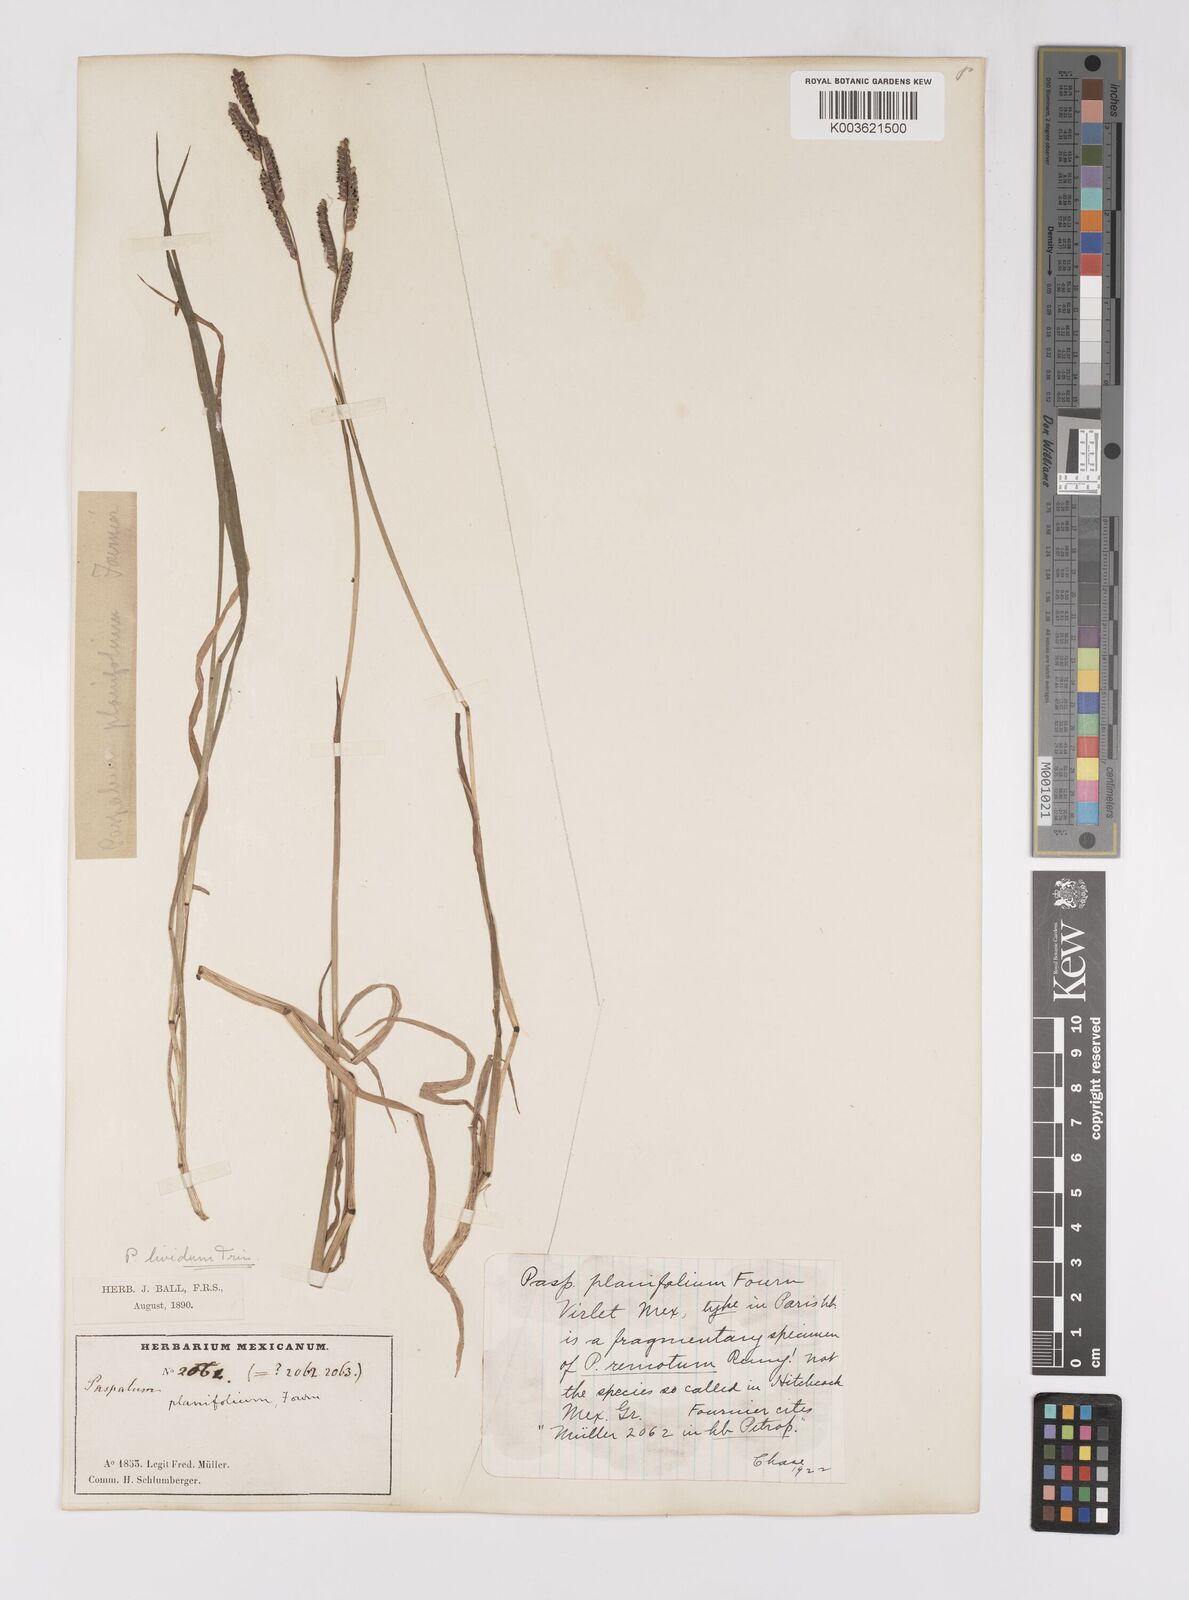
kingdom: Plantae
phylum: Tracheophyta
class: Liliopsida
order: Poales
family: Poaceae
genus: Paspalum
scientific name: Paspalum denticulatum
